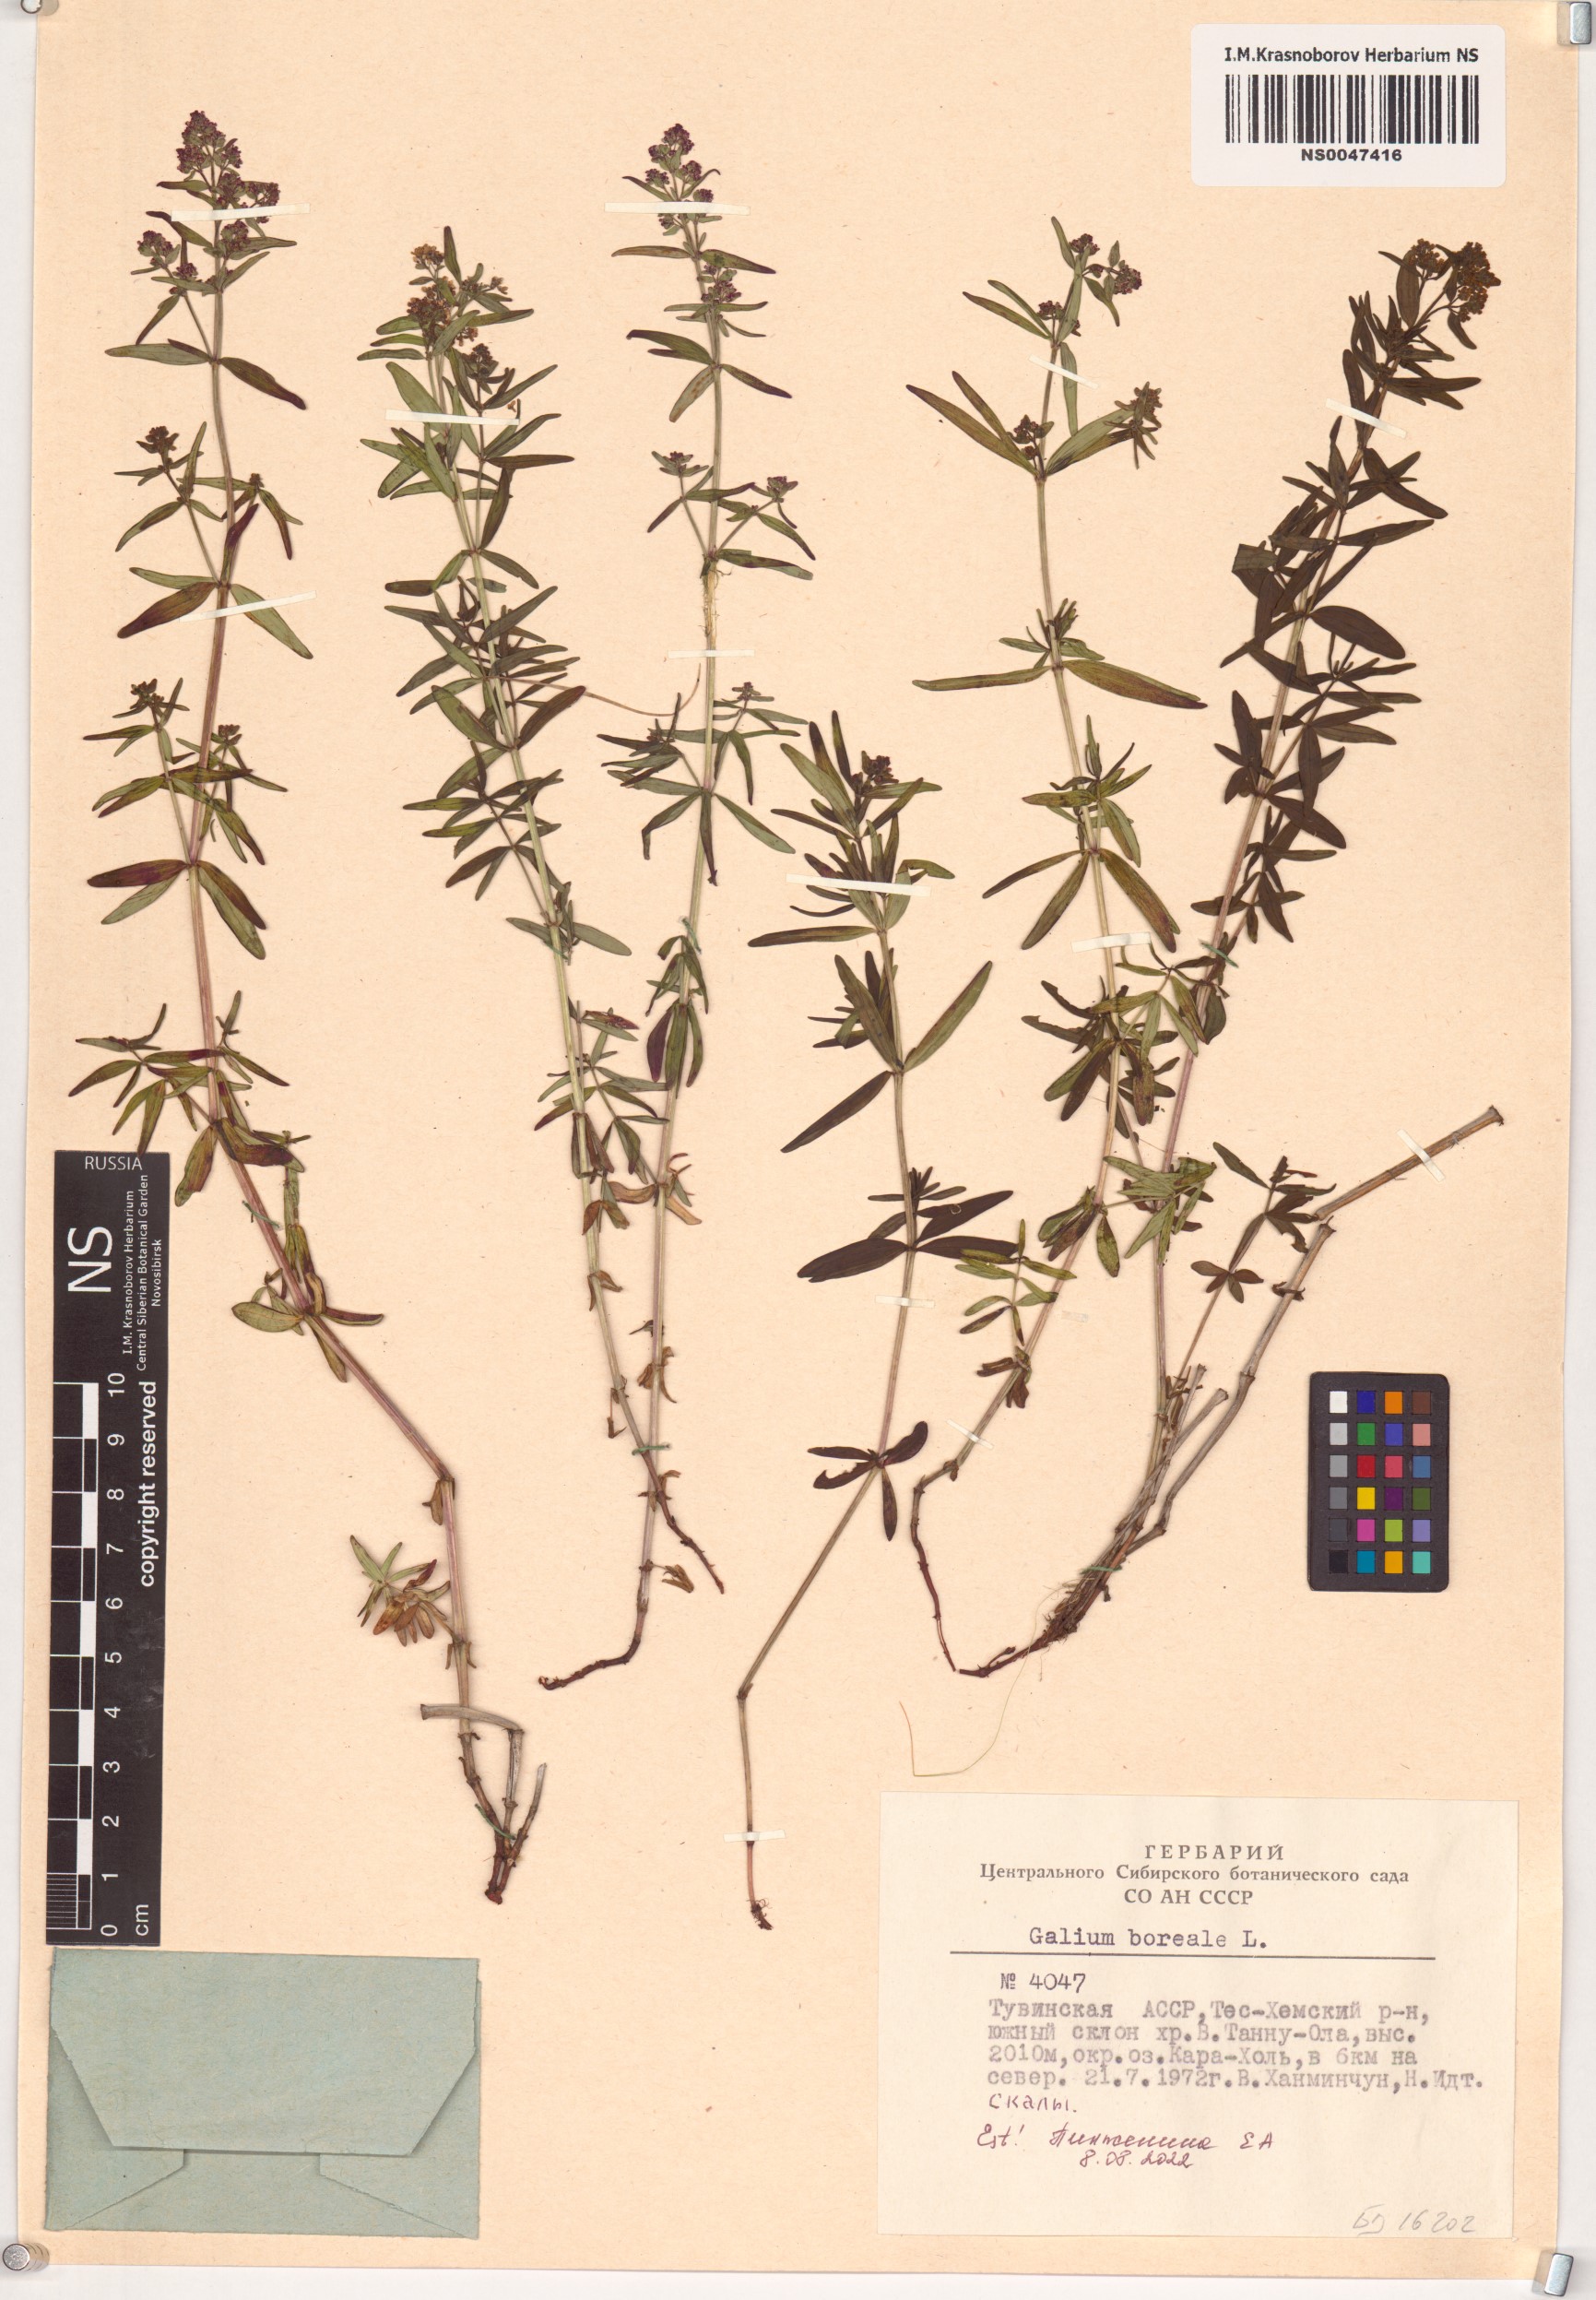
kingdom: Plantae
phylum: Tracheophyta
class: Magnoliopsida
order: Gentianales
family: Rubiaceae
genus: Galium
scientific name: Galium boreale
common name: Northern bedstraw
